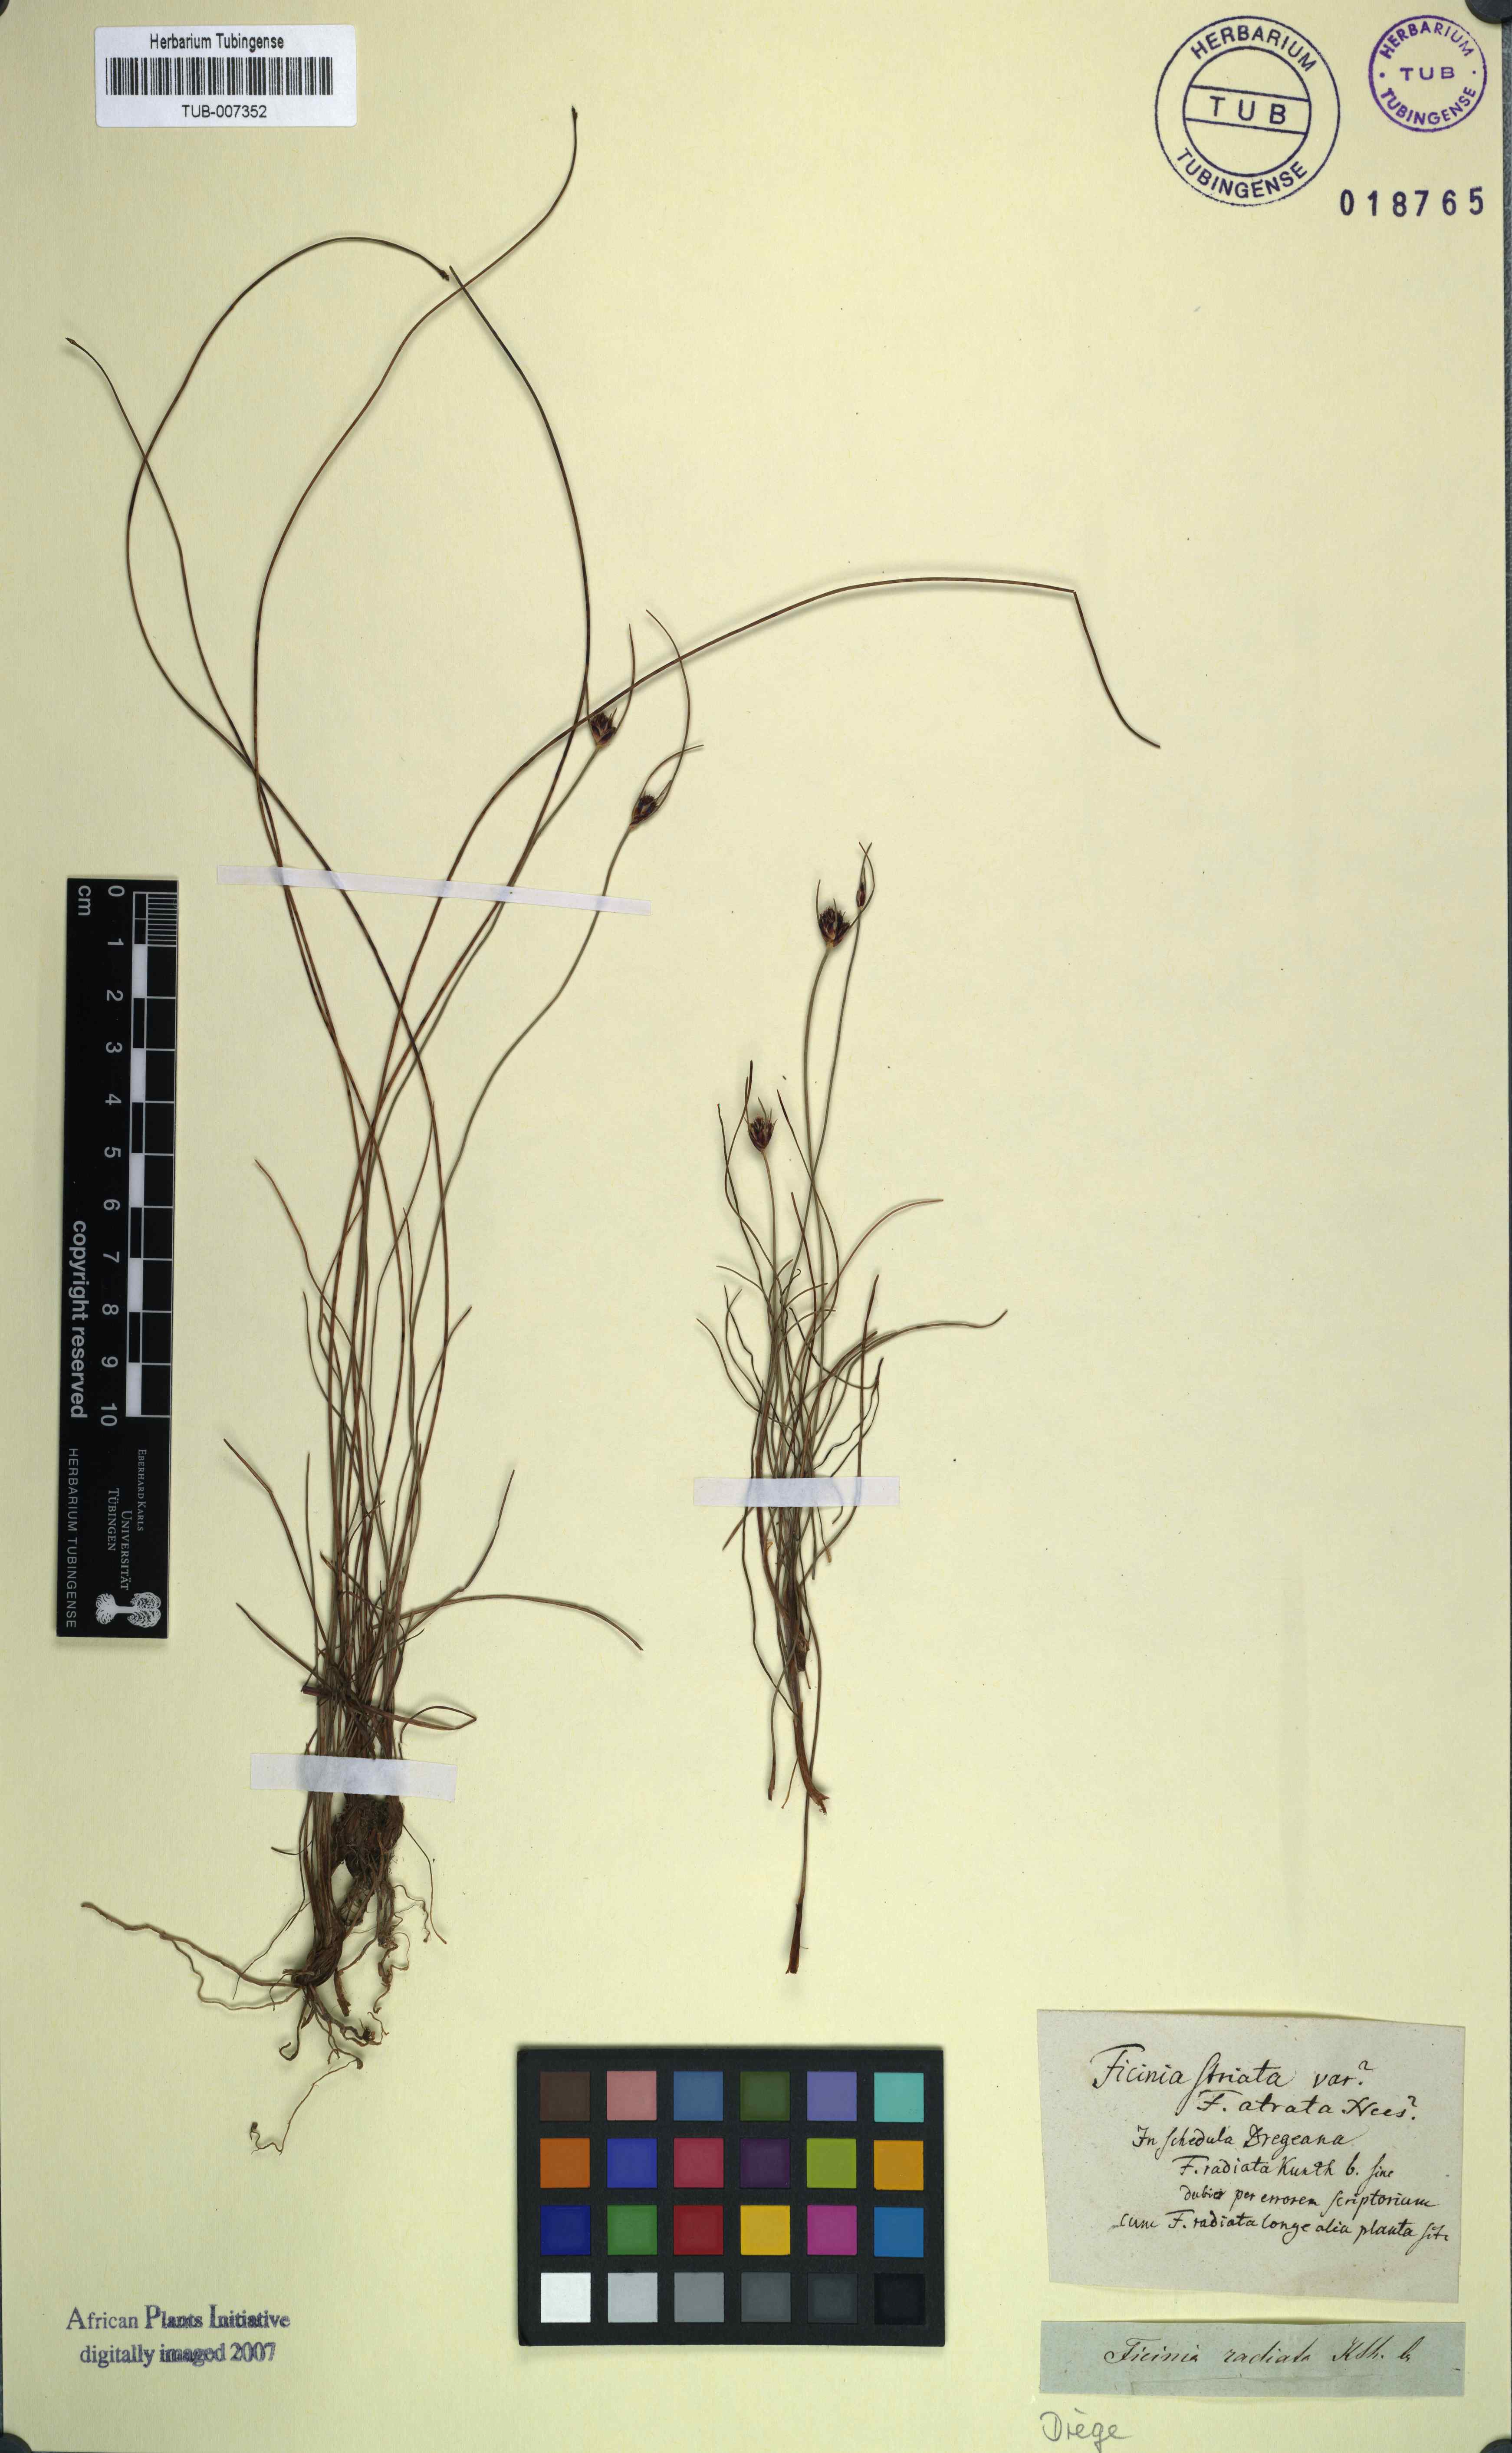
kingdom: Plantae
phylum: Tracheophyta
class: Liliopsida
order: Poales
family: Cyperaceae
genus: Ficinia
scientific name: Ficinia indica
